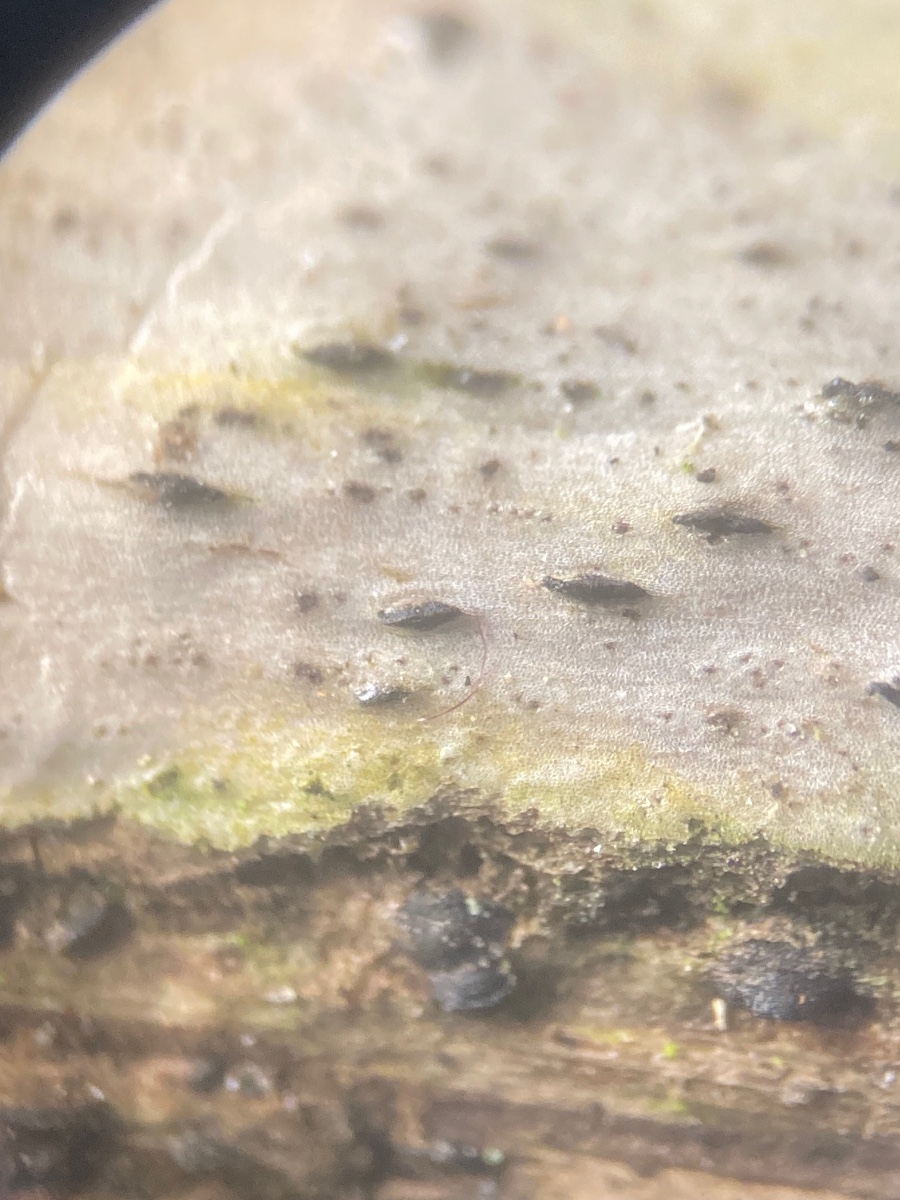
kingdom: Fungi
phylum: Ascomycota
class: Dothideomycetes
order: Pleosporales
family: Lophiostomataceae
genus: Lophiostoma
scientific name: Lophiostoma compressum
